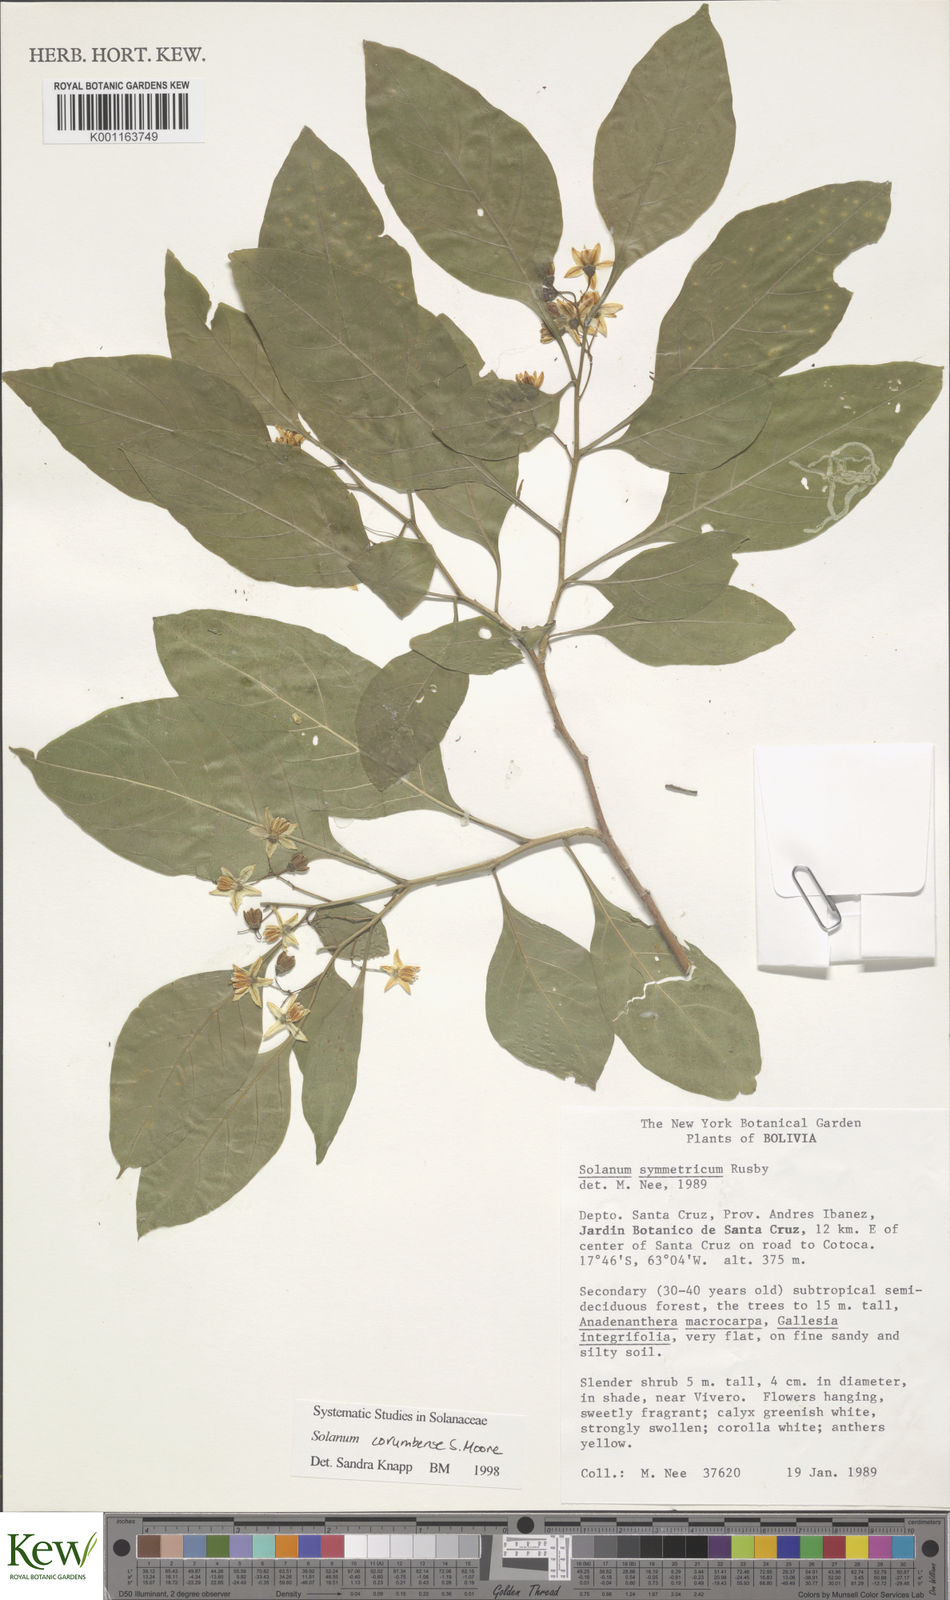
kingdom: Plantae
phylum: Tracheophyta
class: Magnoliopsida
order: Solanales
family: Solanaceae
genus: Solanum
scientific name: Solanum corumbense
